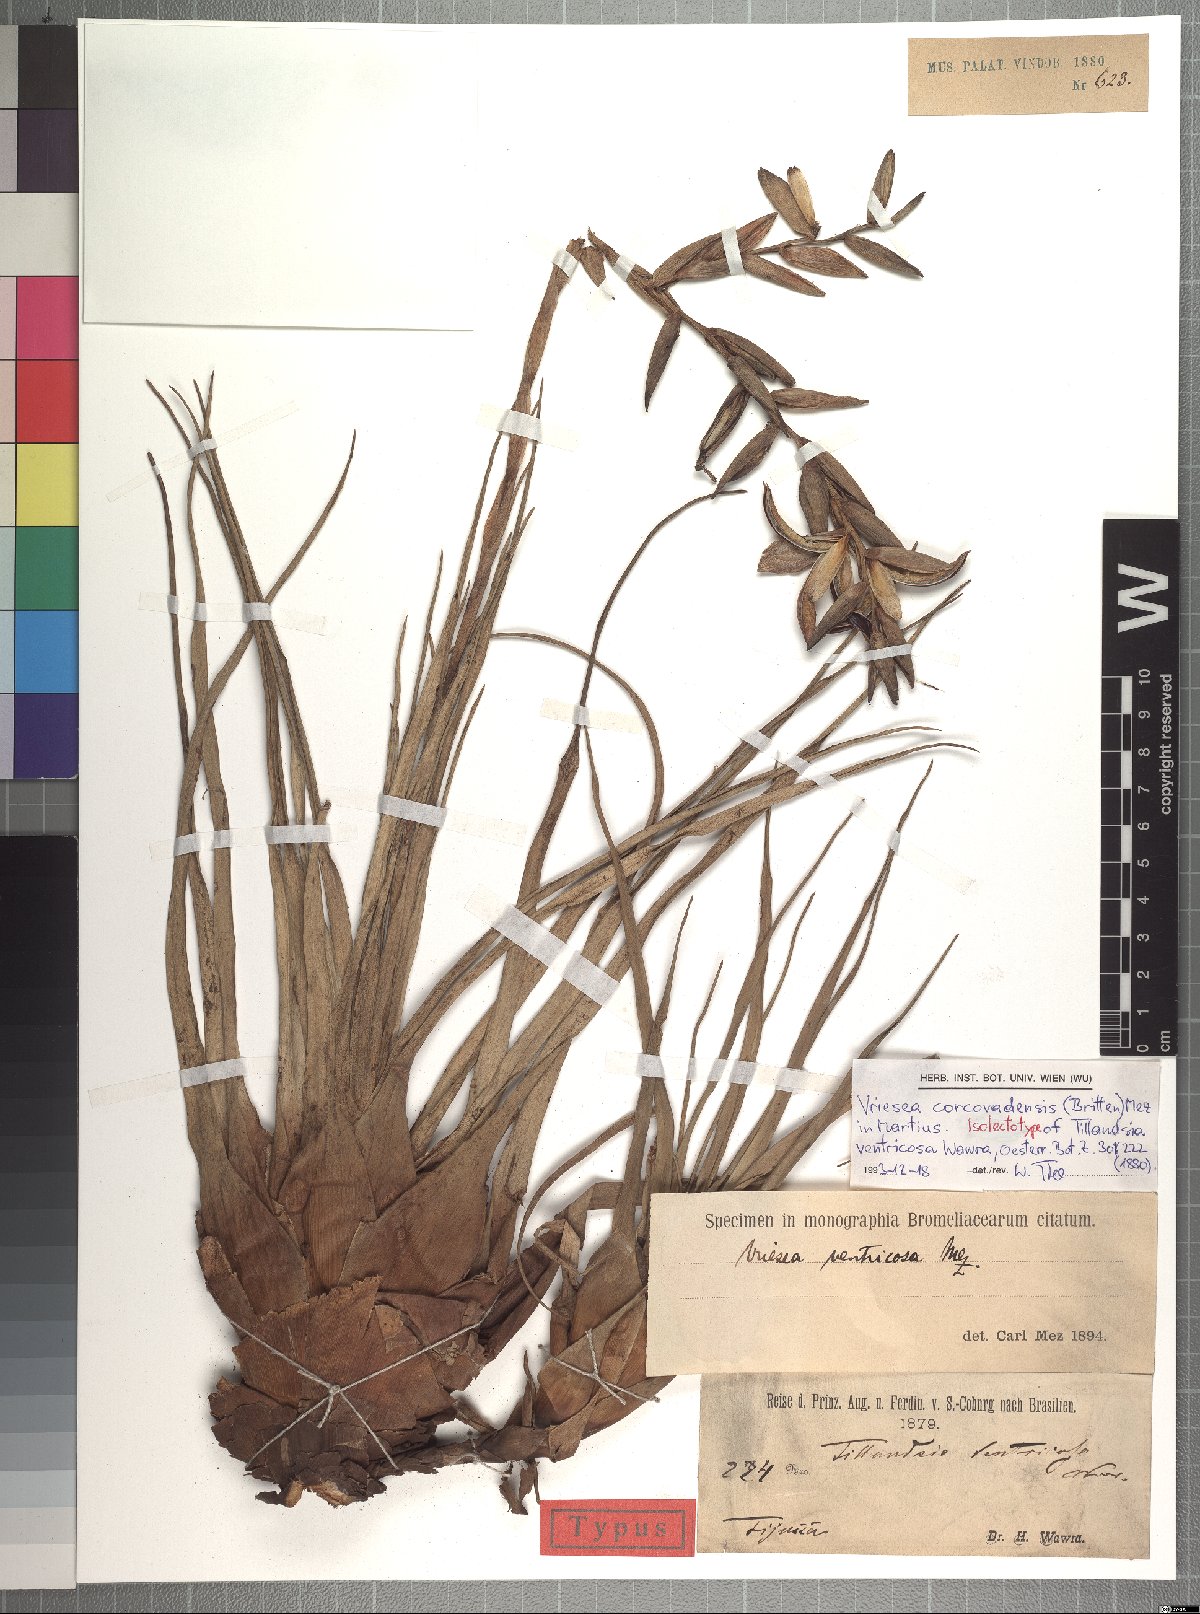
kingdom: Plantae
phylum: Tracheophyta
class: Liliopsida
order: Poales
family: Bromeliaceae
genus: Vriesea
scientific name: Vriesea corcovadensis
